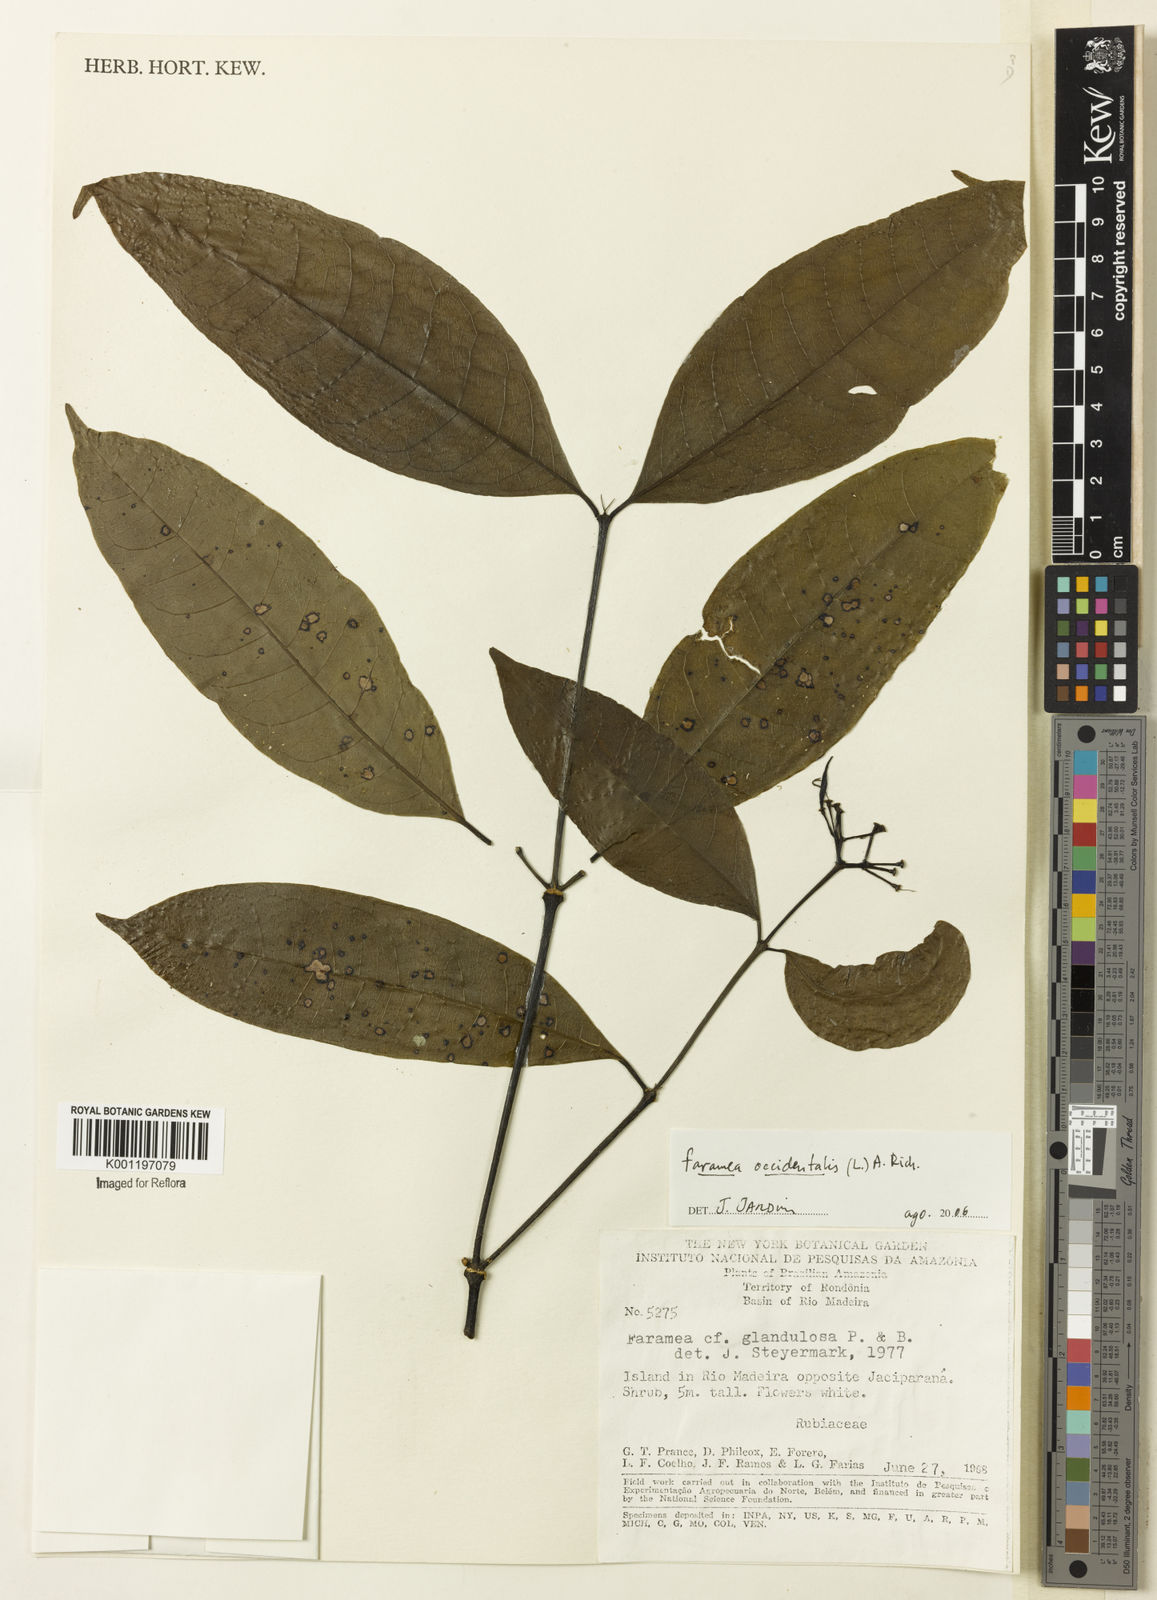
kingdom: Plantae
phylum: Tracheophyta
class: Magnoliopsida
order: Gentianales
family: Rubiaceae
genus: Faramea
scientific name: Faramea occidentalis
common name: False coffee
